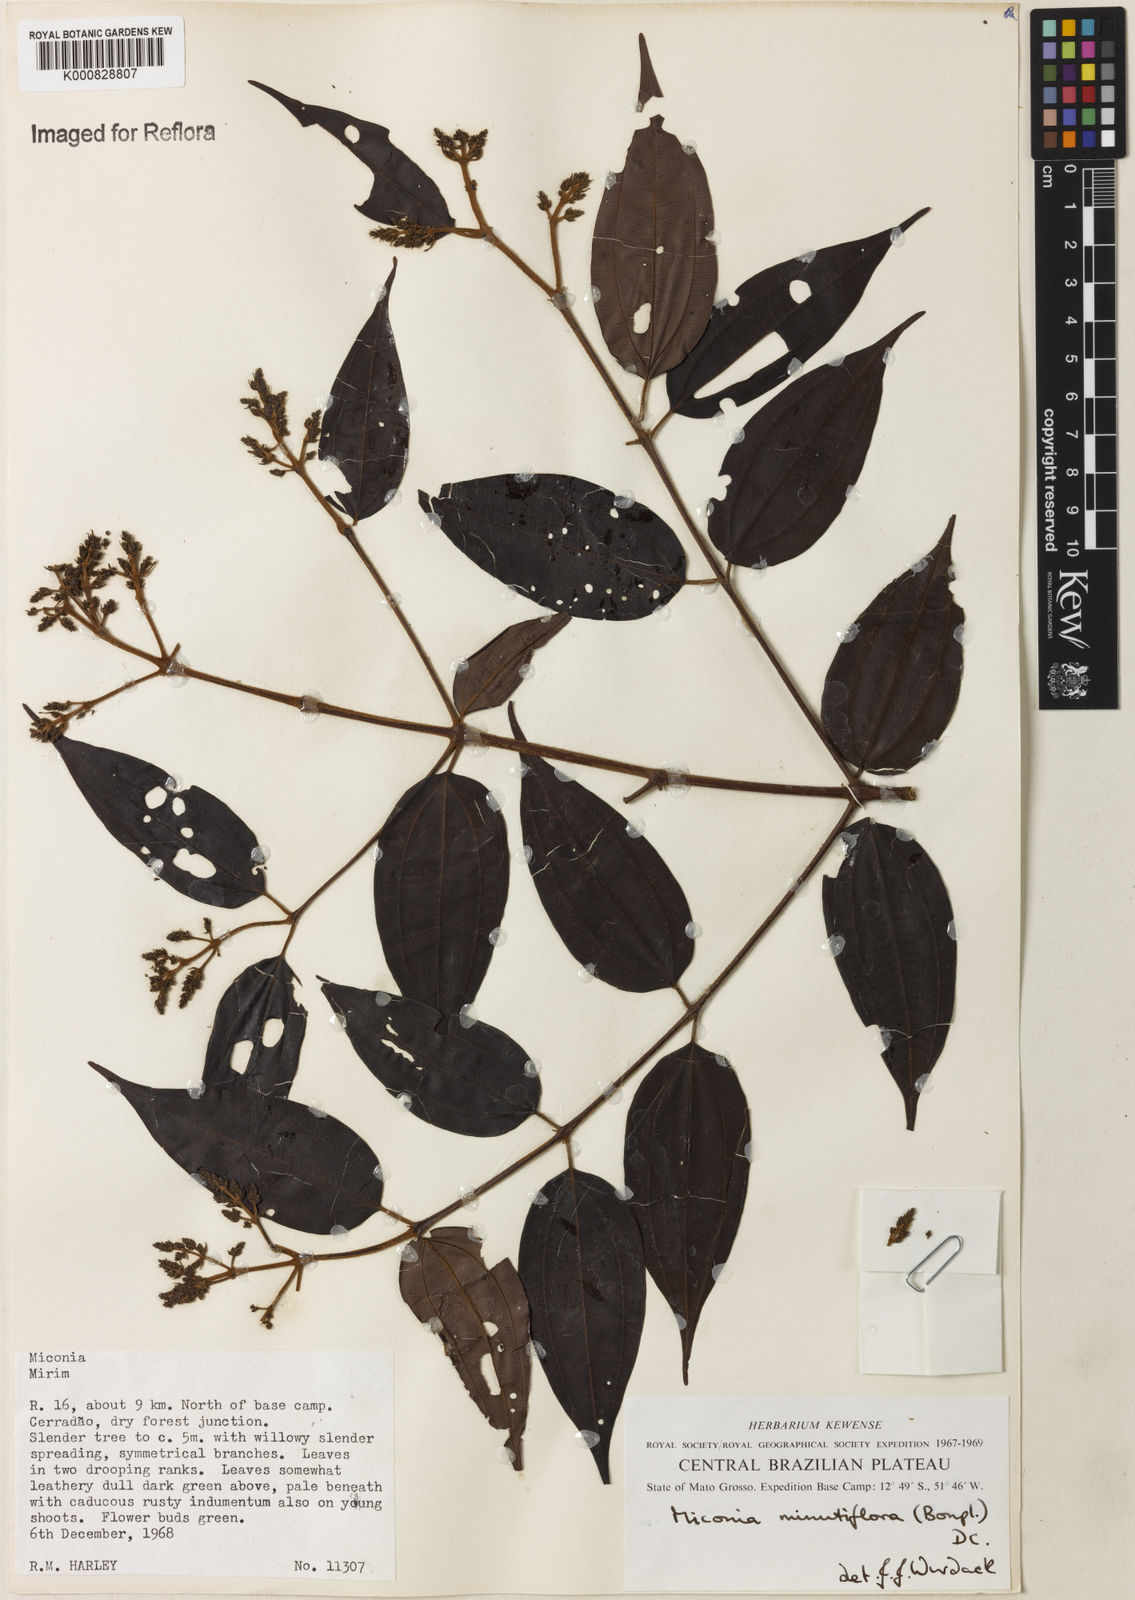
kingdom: Plantae
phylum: Tracheophyta
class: Magnoliopsida
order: Myrtales
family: Melastomataceae
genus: Miconia
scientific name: Miconia minutiflora
